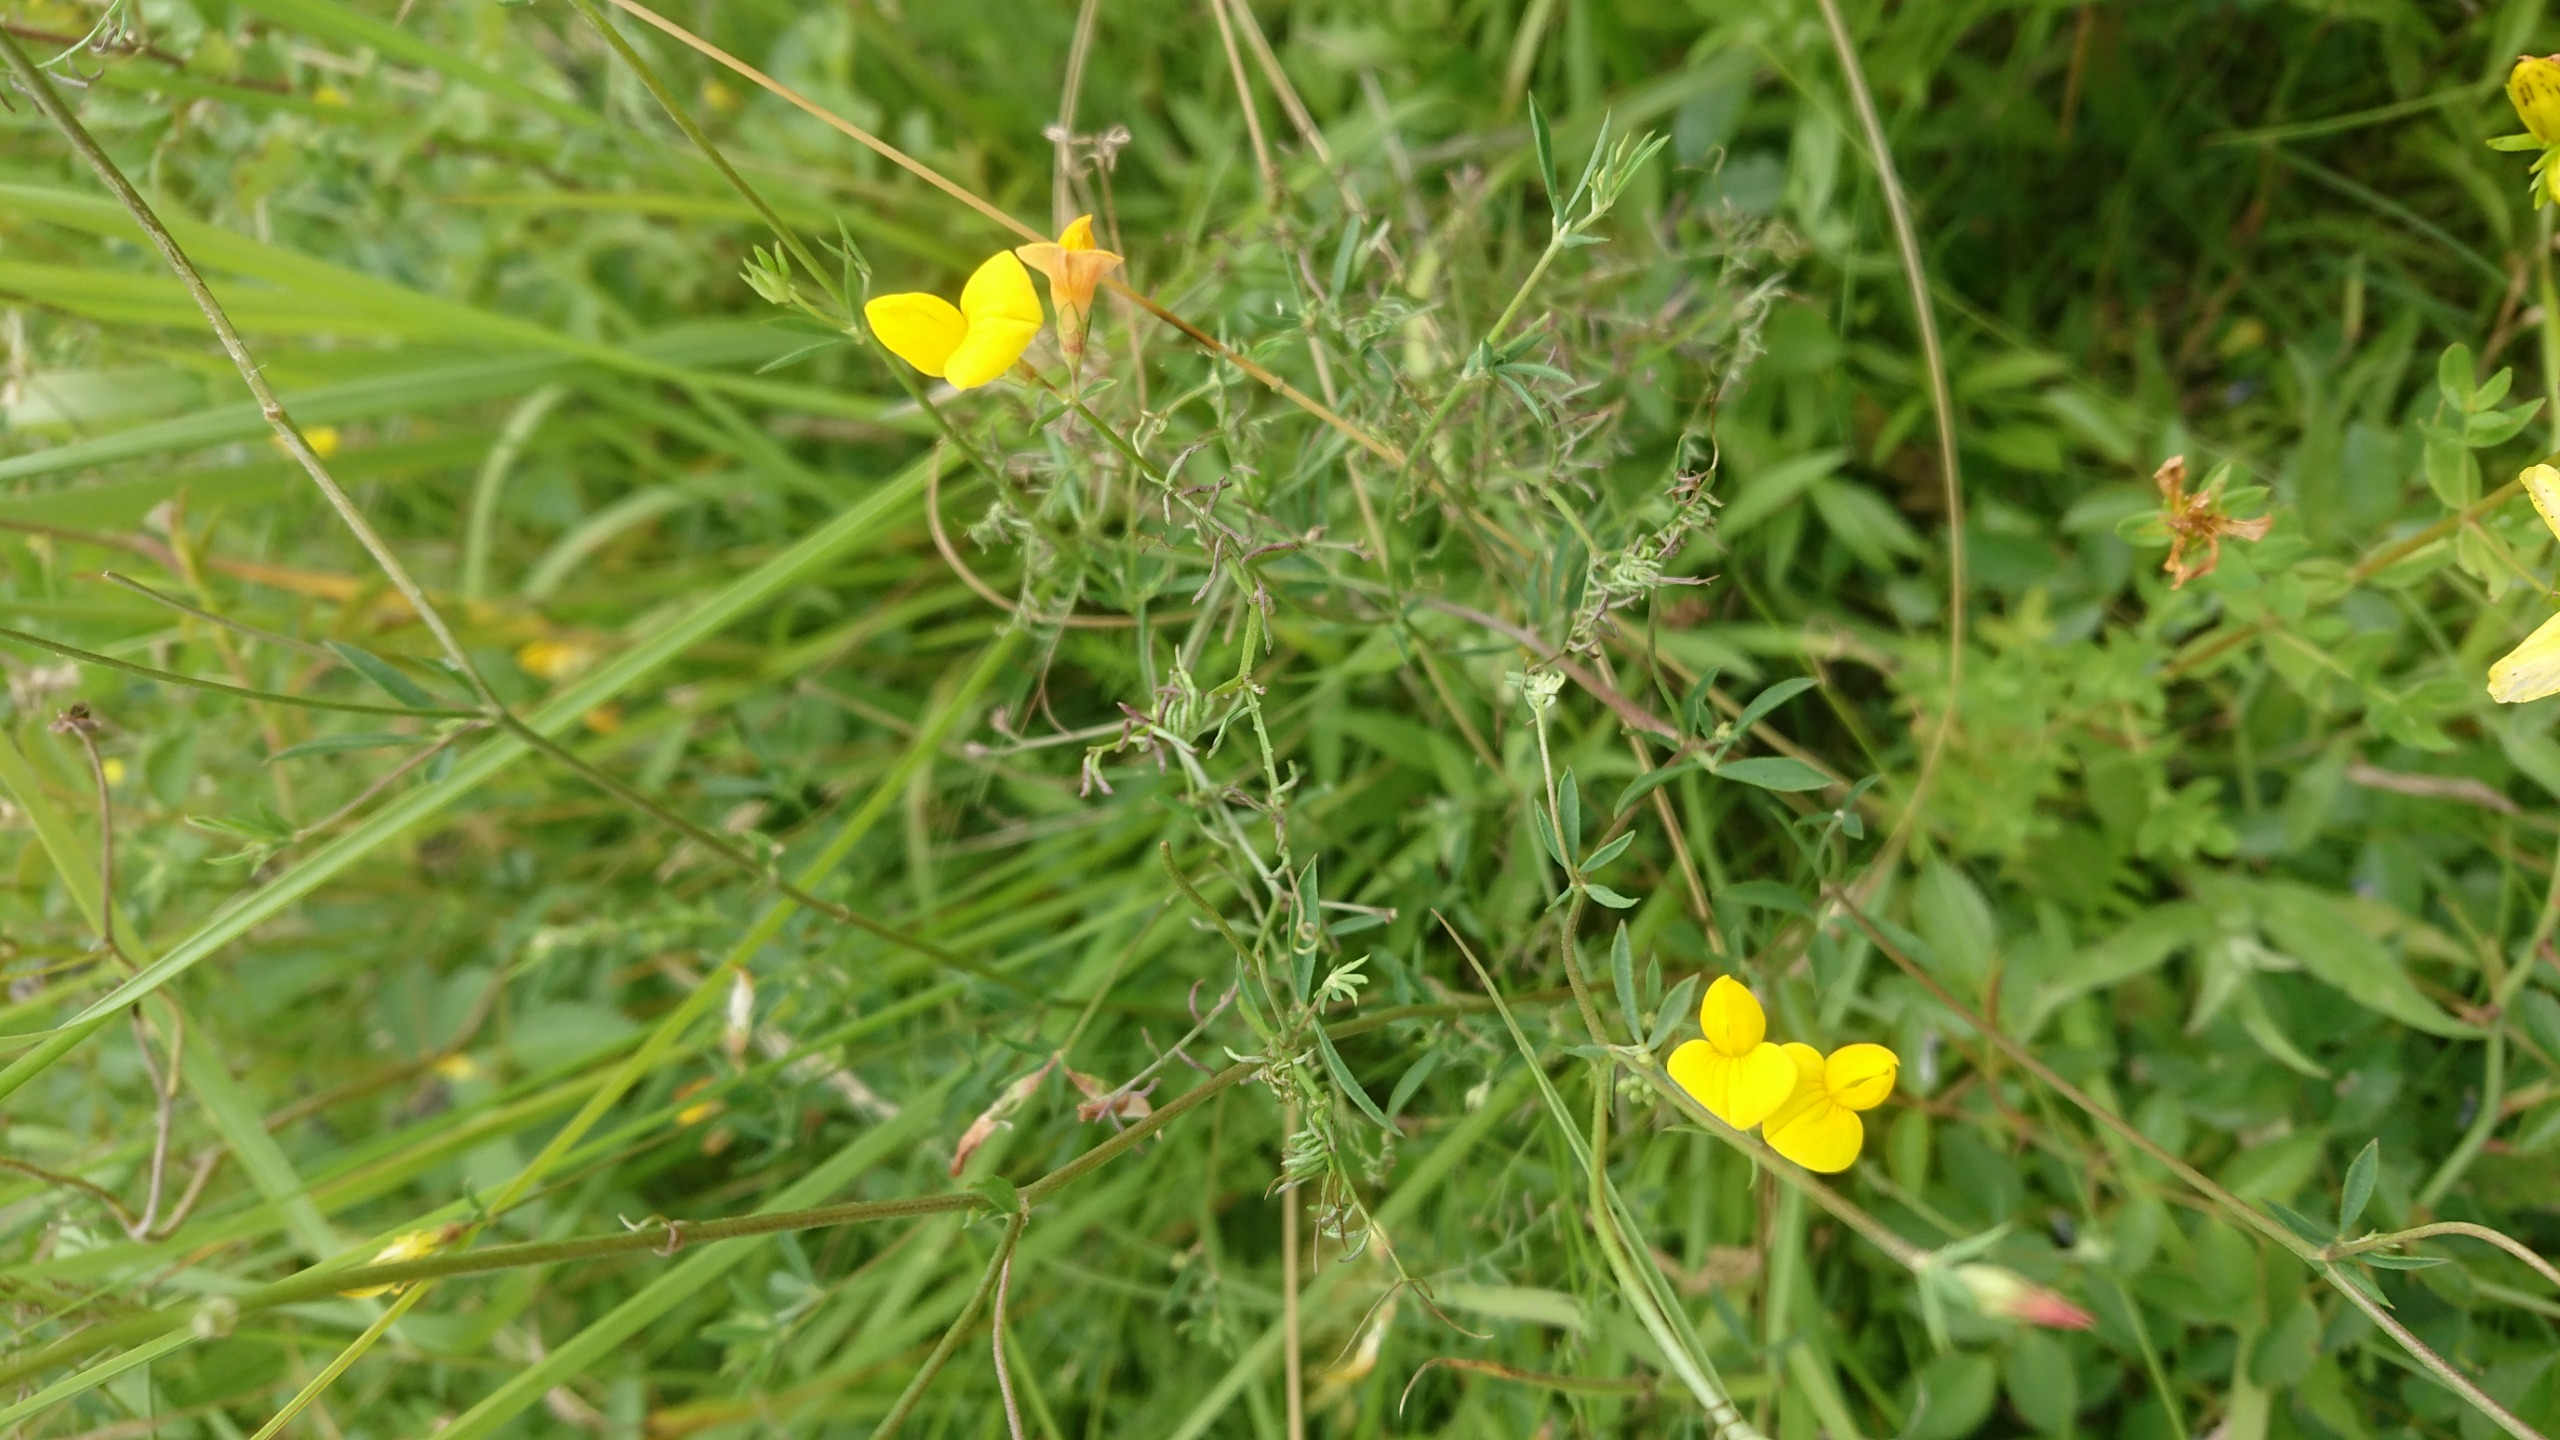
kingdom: Plantae
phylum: Tracheophyta
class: Magnoliopsida
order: Fabales
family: Fabaceae
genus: Lotus
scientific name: Lotus tenuis
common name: Smalbladet kællingetand
